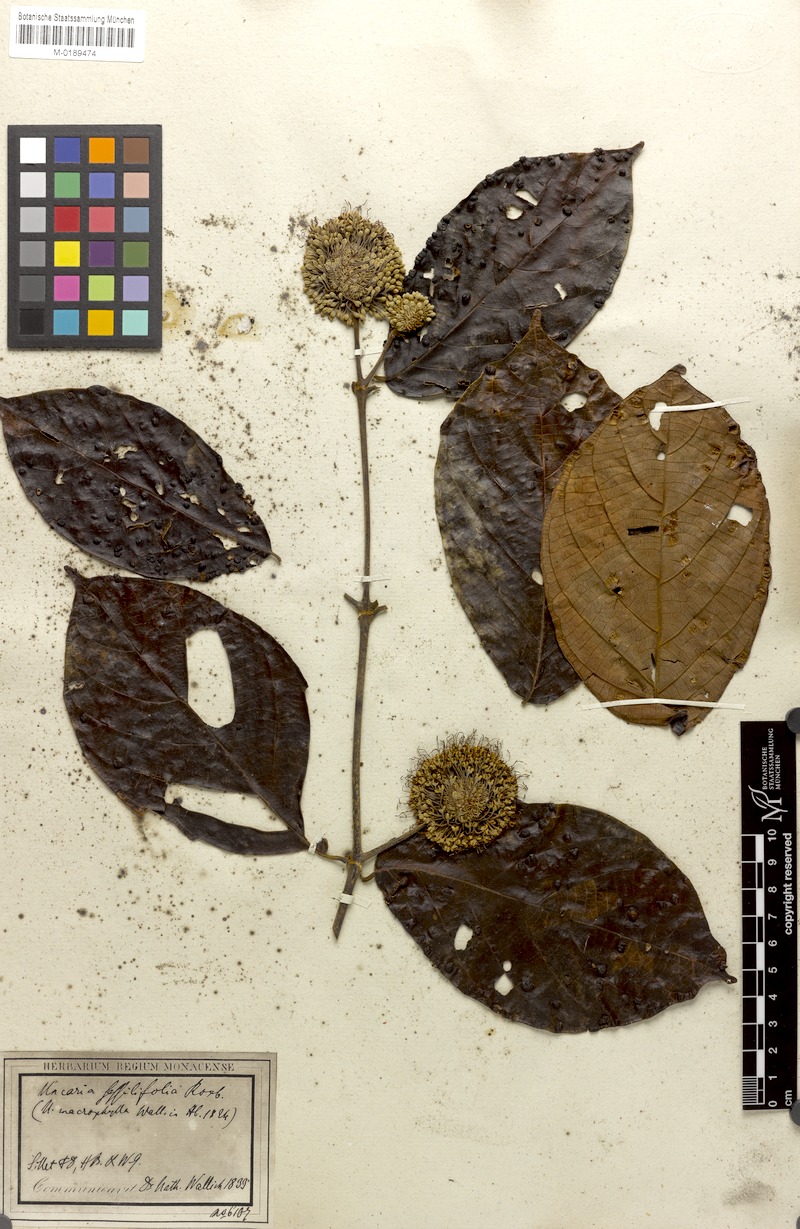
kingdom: Plantae
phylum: Tracheophyta
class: Magnoliopsida
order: Gentianales
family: Rubiaceae
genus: Uncaria
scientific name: Uncaria macrophylla
